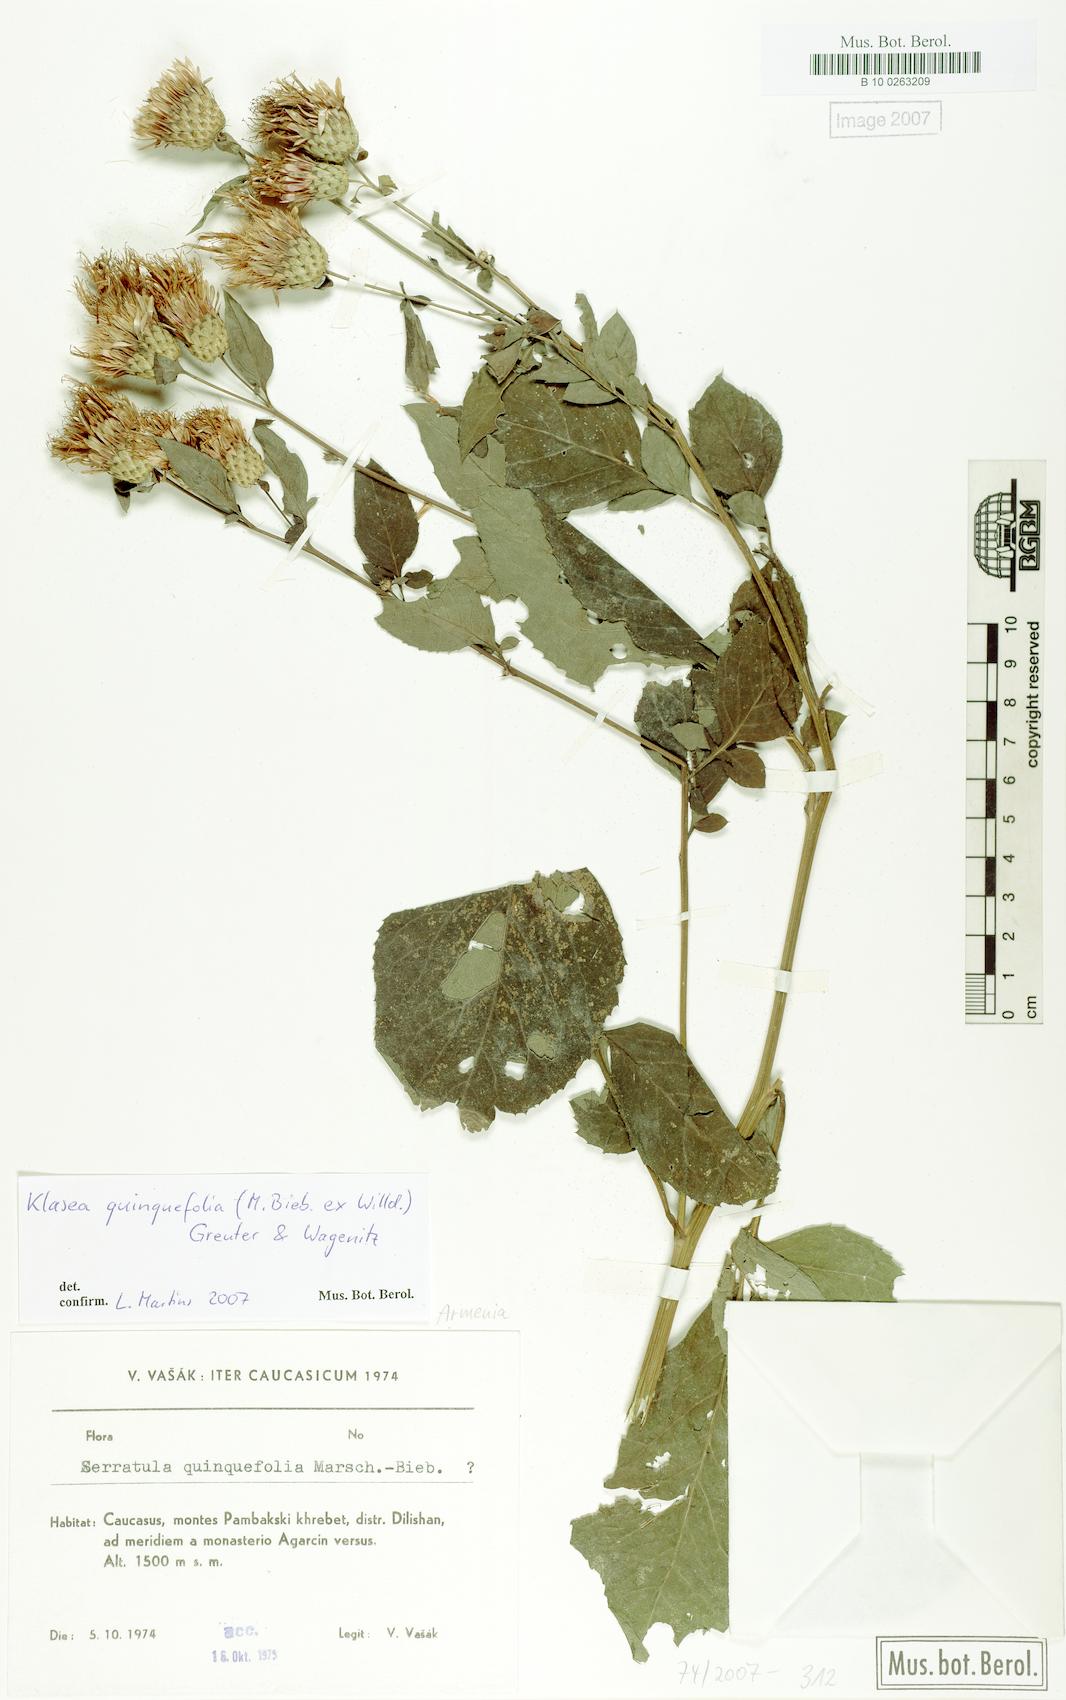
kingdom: Plantae
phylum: Tracheophyta
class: Magnoliopsida
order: Asterales
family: Asteraceae
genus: Klasea
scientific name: Klasea quinquefolia
